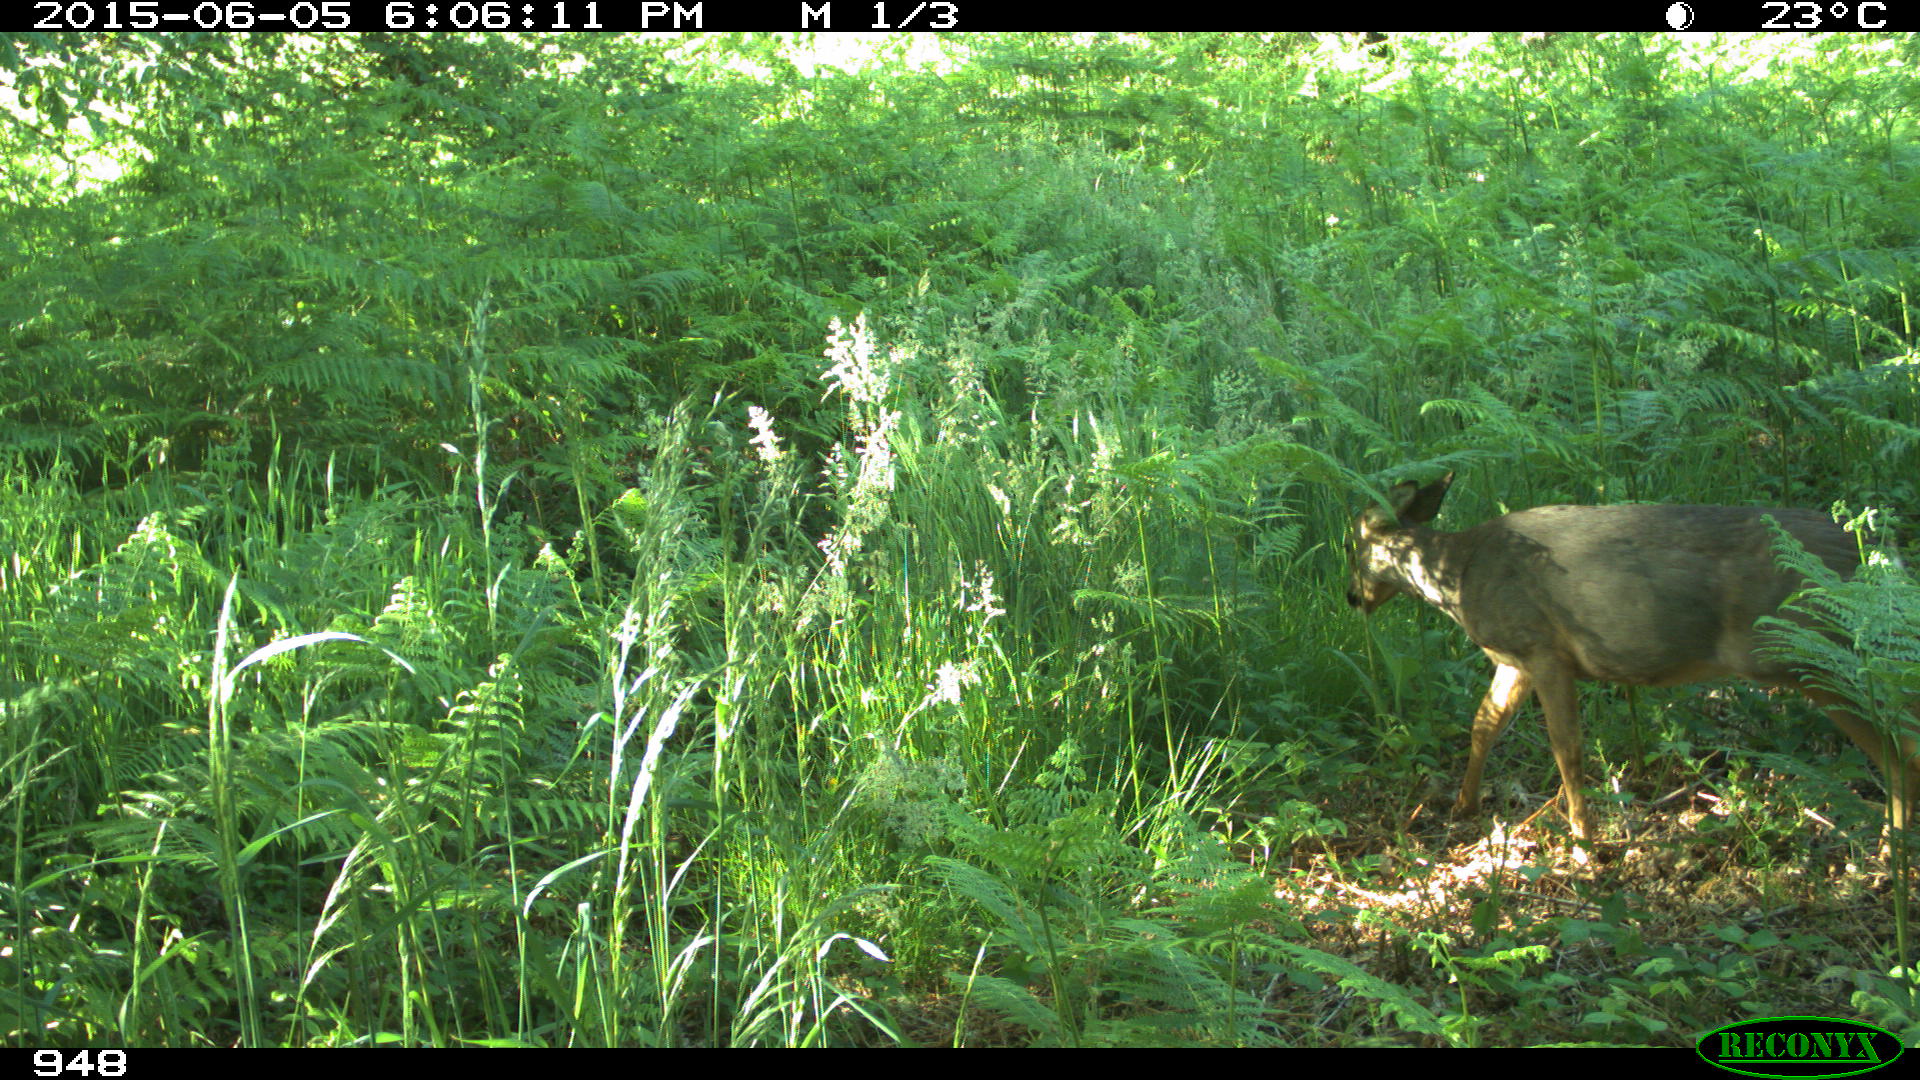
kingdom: Animalia
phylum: Chordata
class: Mammalia
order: Artiodactyla
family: Cervidae
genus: Capreolus
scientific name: Capreolus capreolus
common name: Western roe deer
